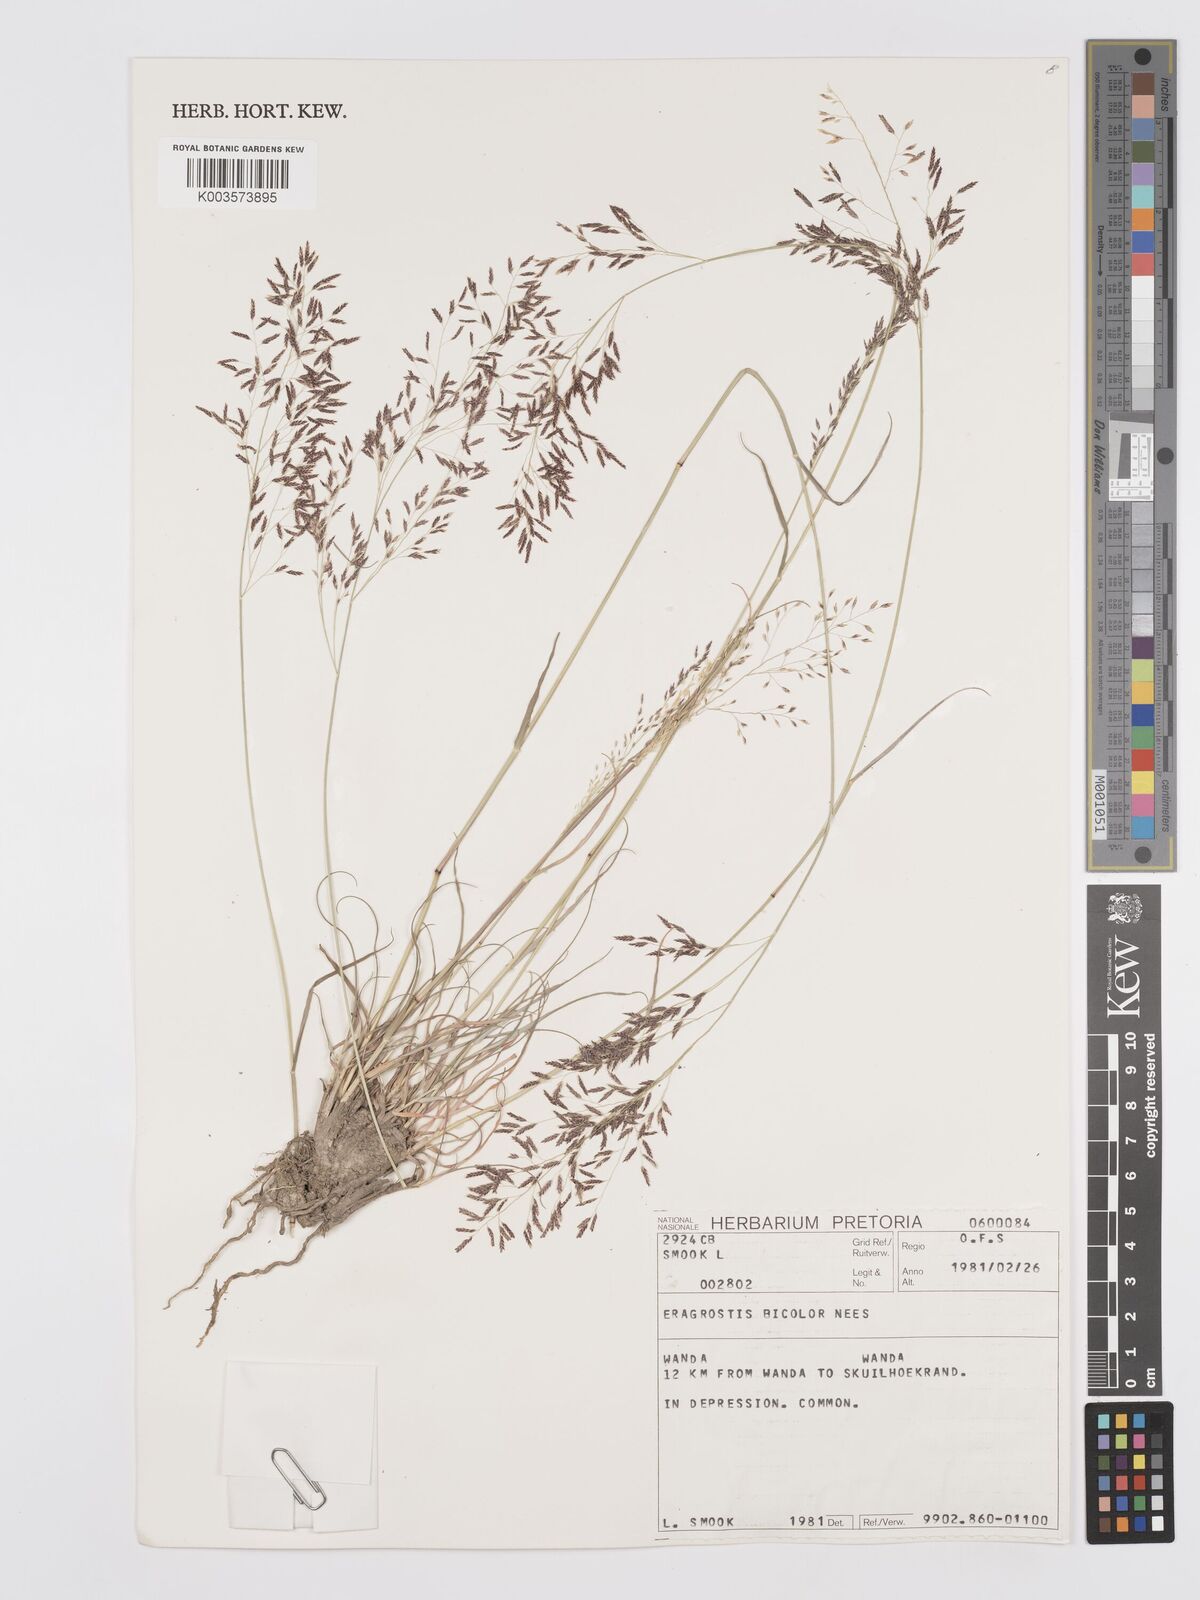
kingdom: Plantae
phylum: Tracheophyta
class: Liliopsida
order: Poales
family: Poaceae
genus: Eragrostis
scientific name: Eragrostis
